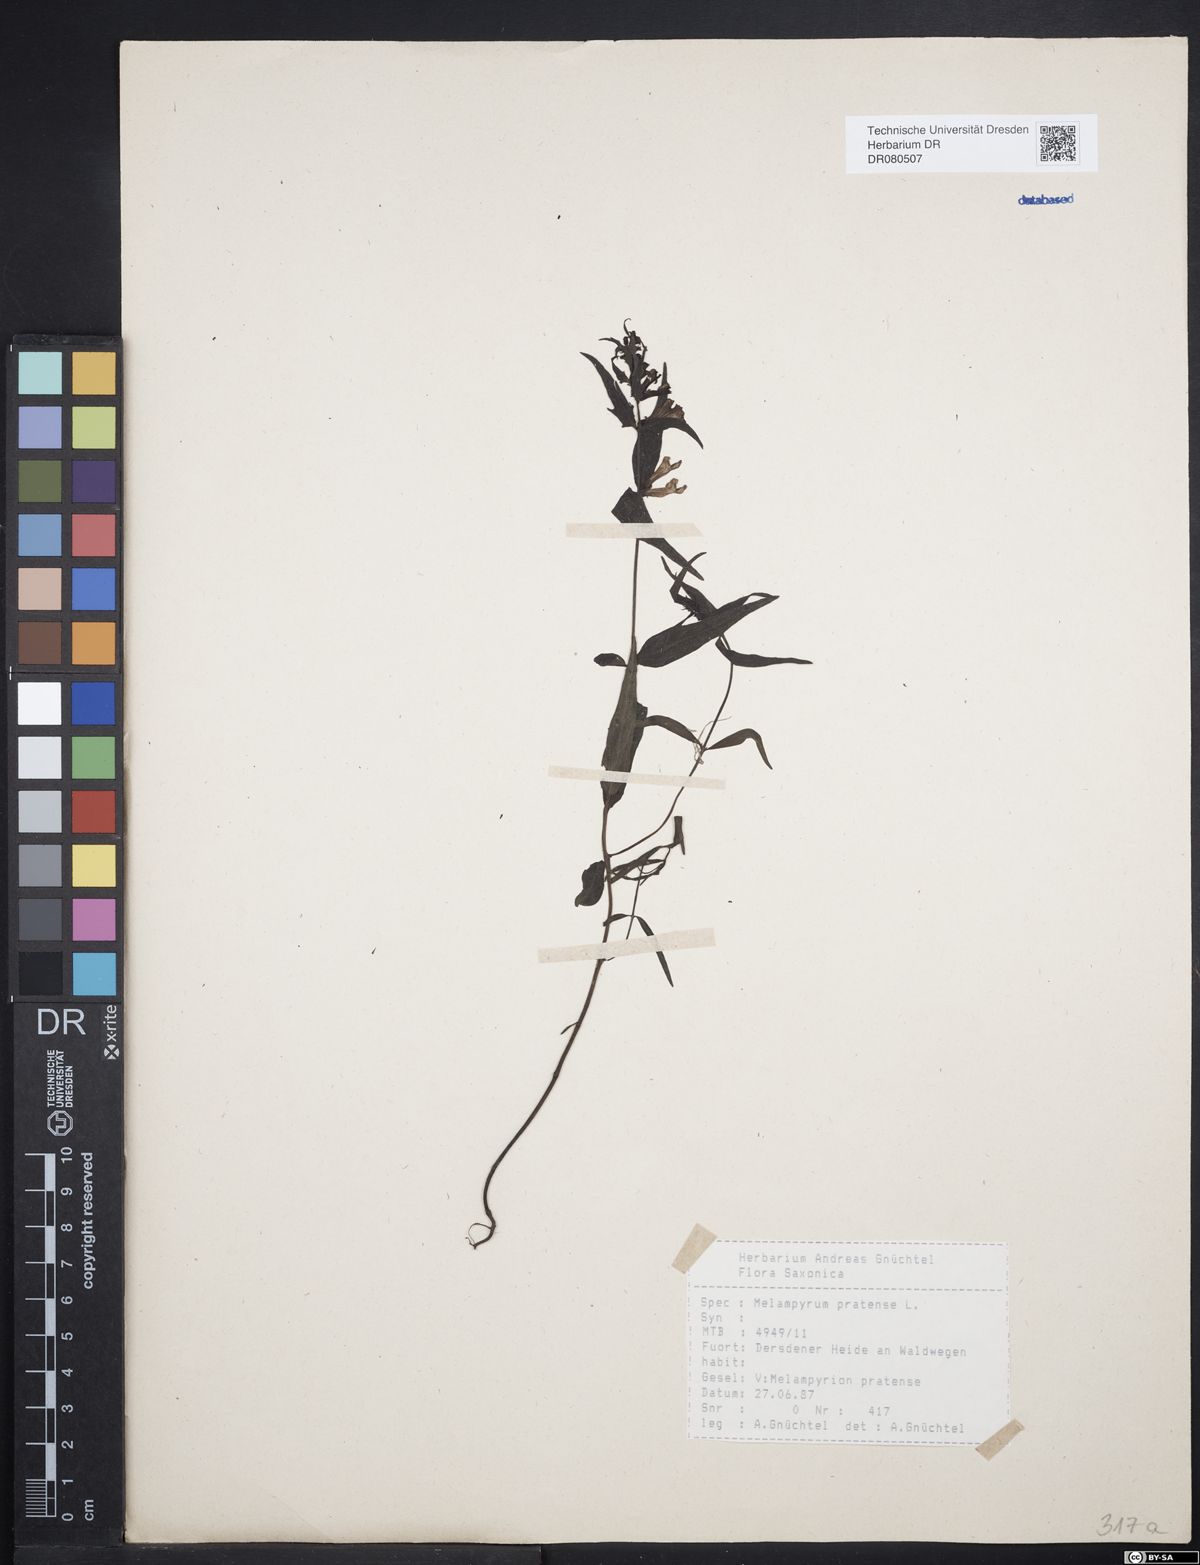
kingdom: Plantae
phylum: Tracheophyta
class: Magnoliopsida
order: Lamiales
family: Orobanchaceae
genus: Melampyrum
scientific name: Melampyrum pratense
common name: Common cow-wheat
